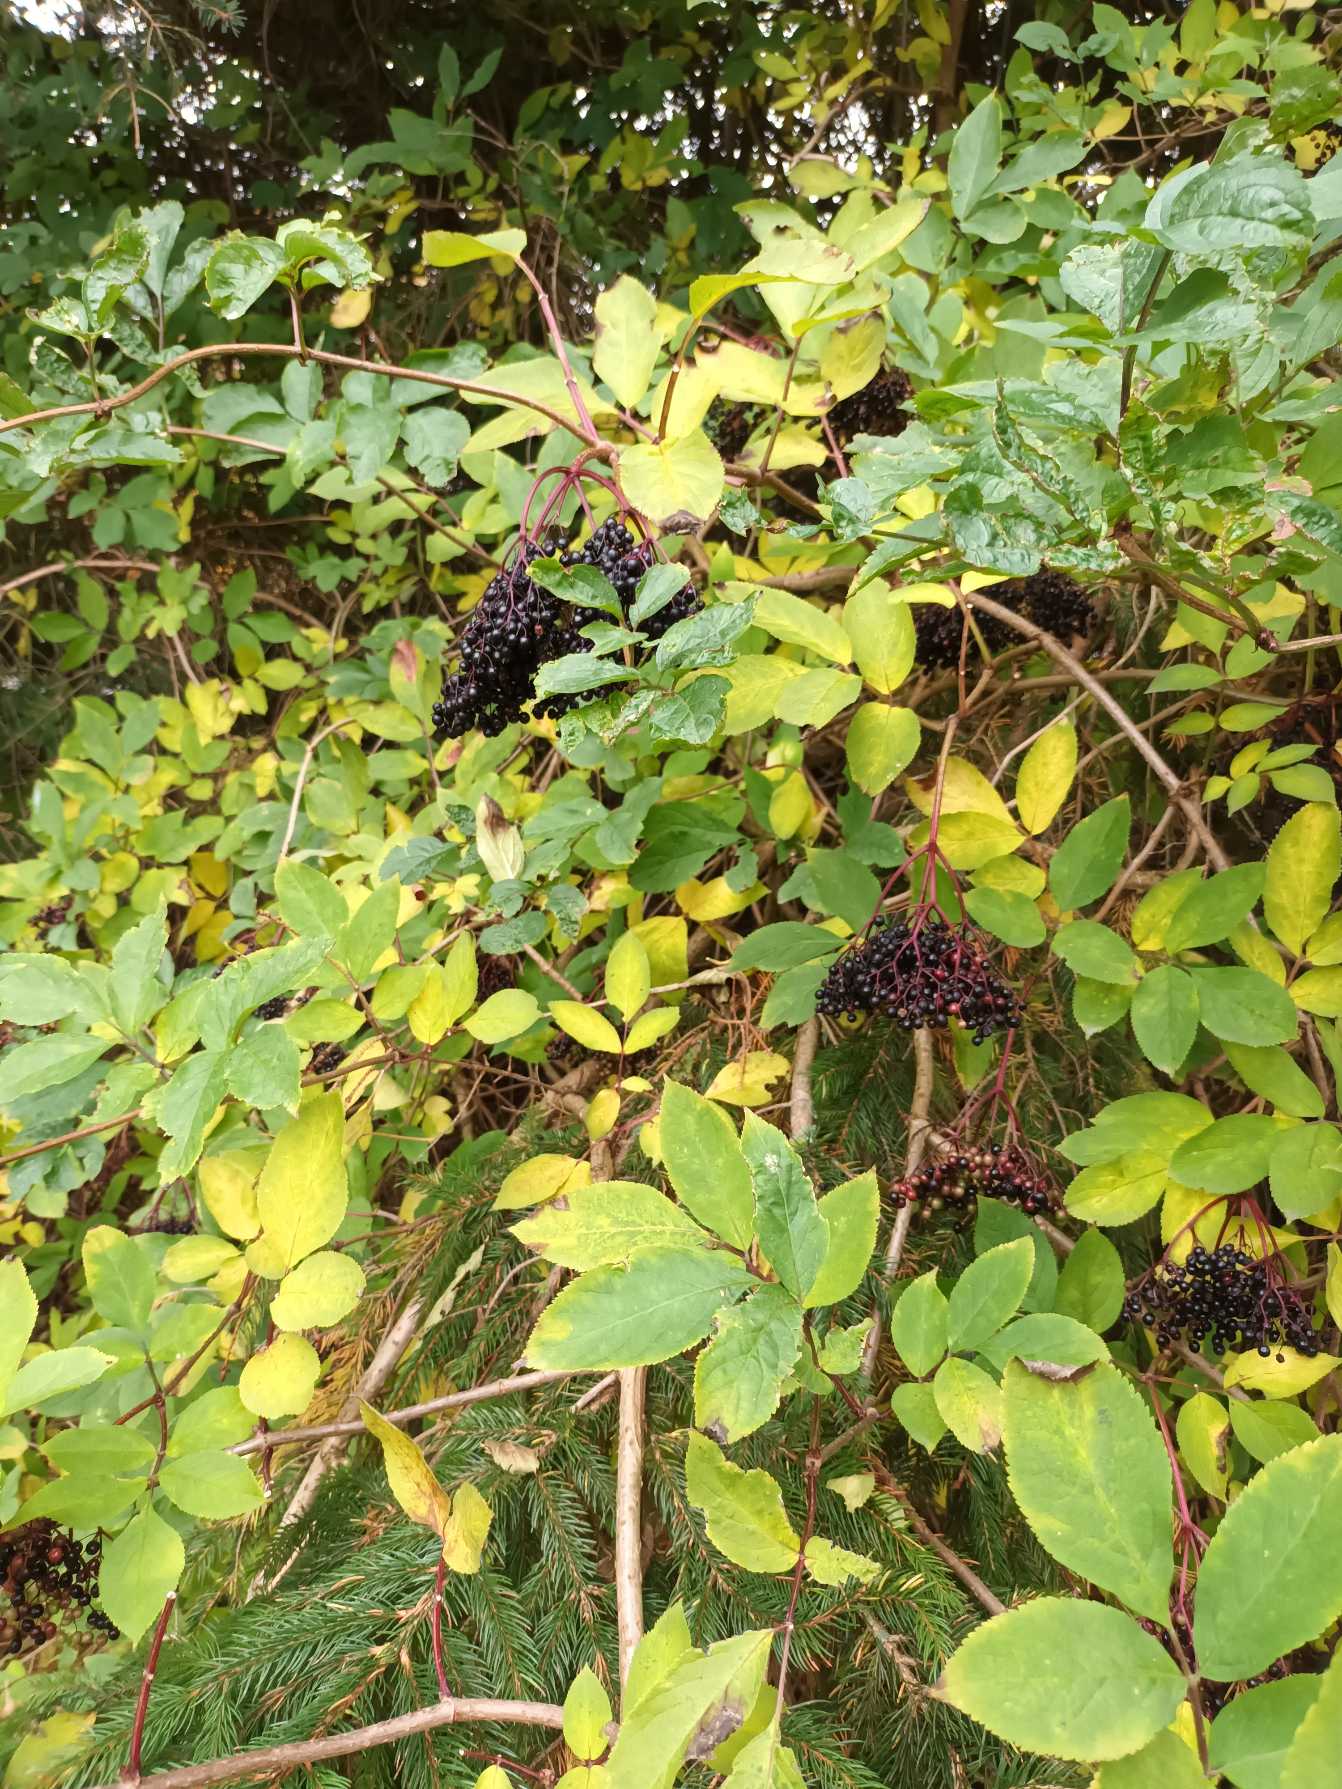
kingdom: Plantae
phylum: Tracheophyta
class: Magnoliopsida
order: Dipsacales
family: Viburnaceae
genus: Sambucus
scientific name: Sambucus nigra
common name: Almindelig hyld
